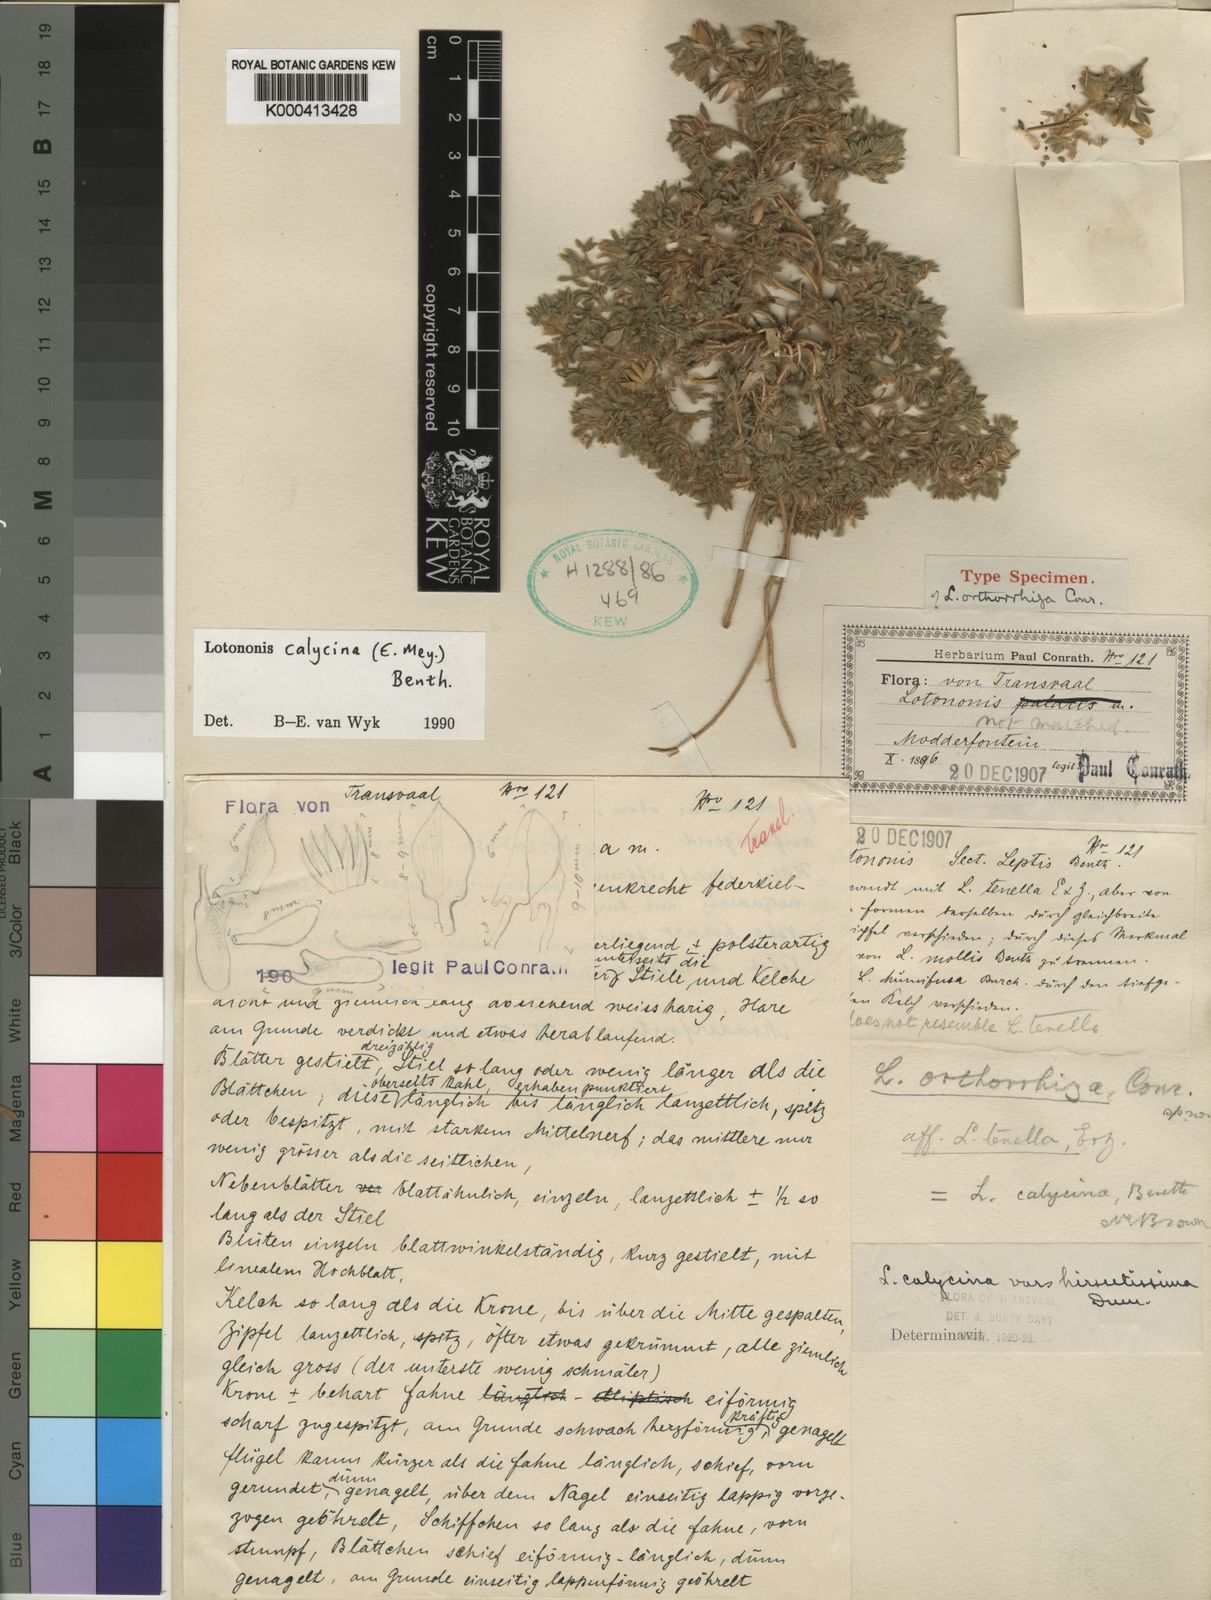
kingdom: Plantae
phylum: Tracheophyta
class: Magnoliopsida
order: Fabales
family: Fabaceae
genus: Leobordea
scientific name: Leobordea divaricata
